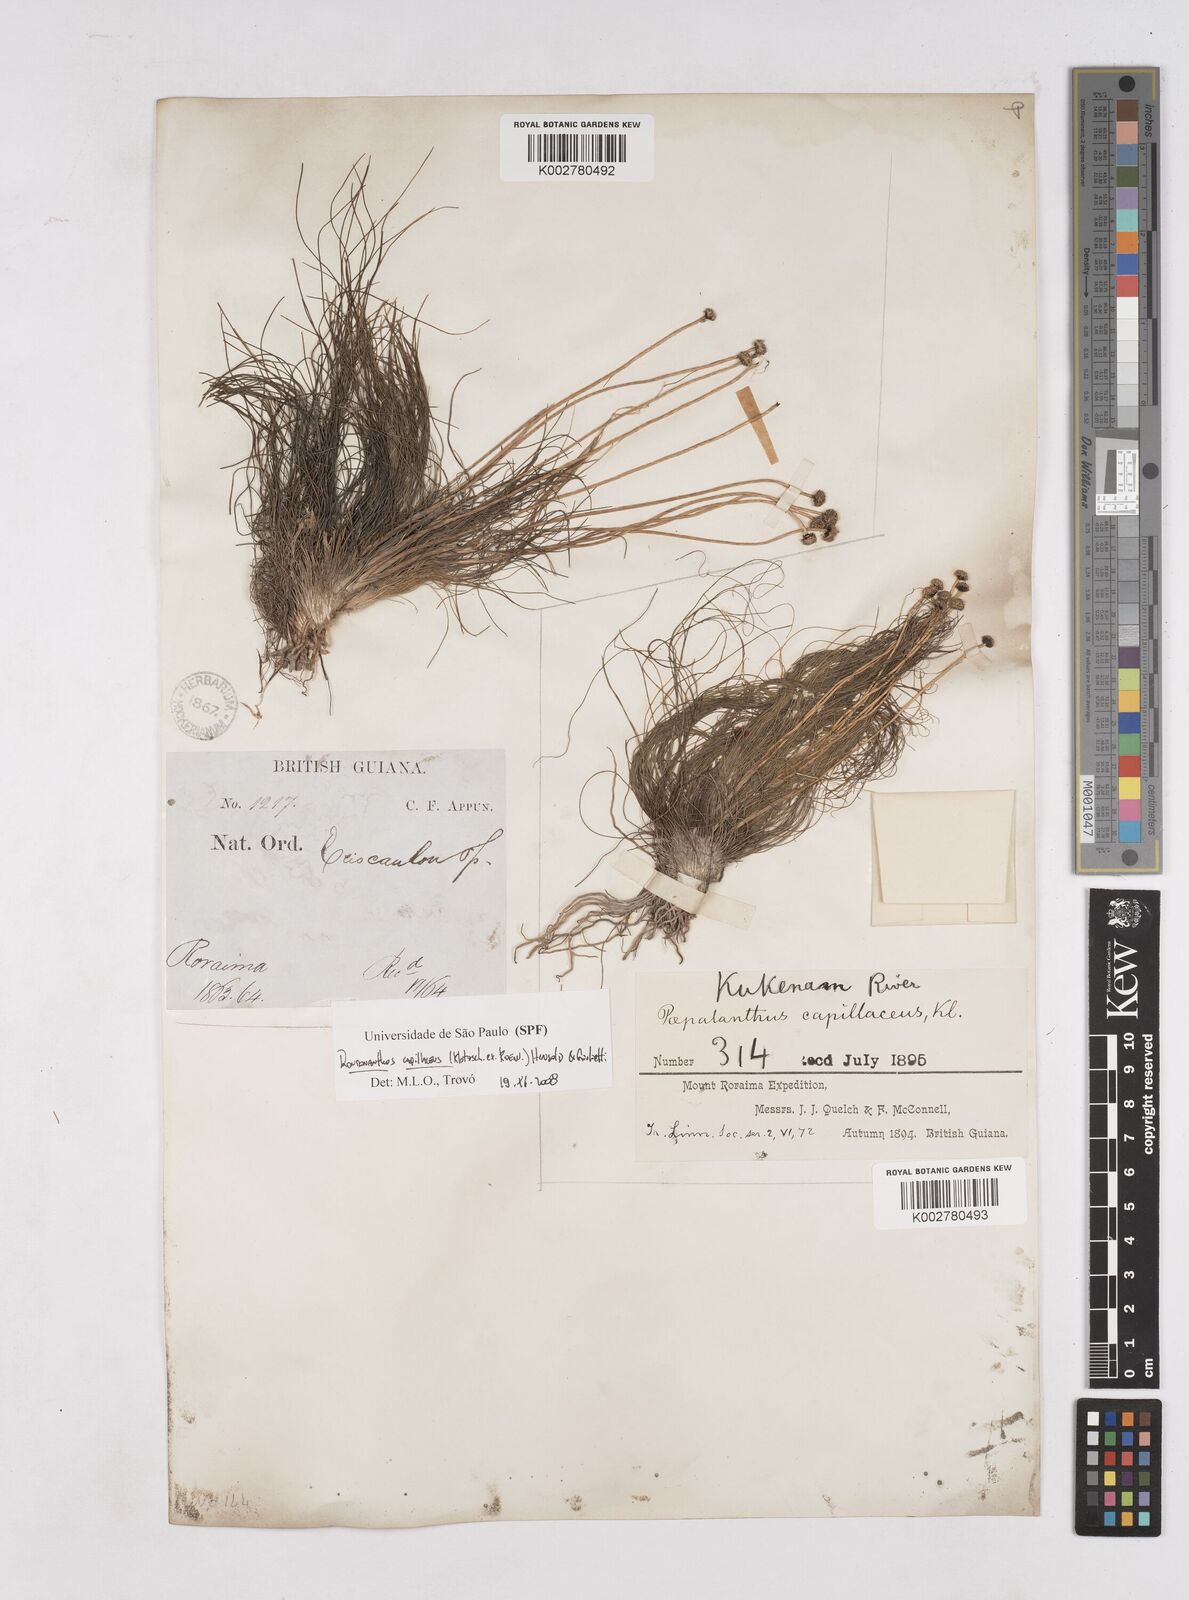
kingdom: Plantae
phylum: Tracheophyta
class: Liliopsida
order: Poales
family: Eriocaulaceae
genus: Rondonanthus
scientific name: Rondonanthus capillaceus
